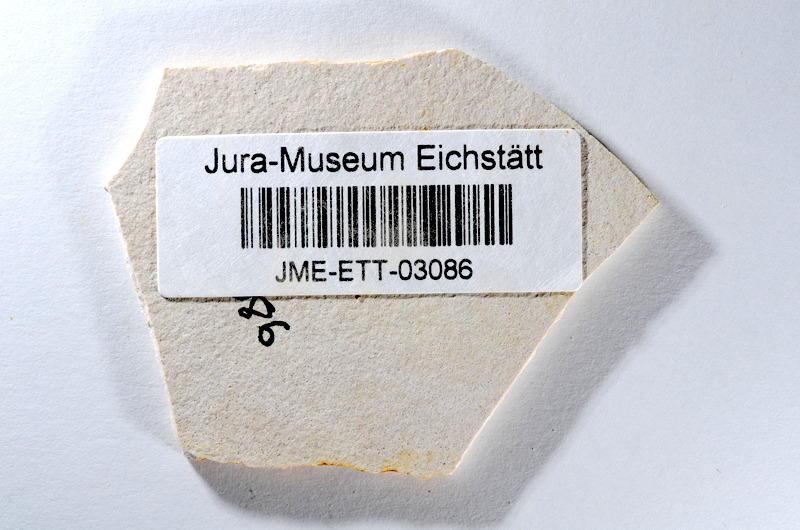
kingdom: Animalia
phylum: Chordata
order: Salmoniformes
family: Orthogonikleithridae
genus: Orthogonikleithrus
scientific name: Orthogonikleithrus hoelli
